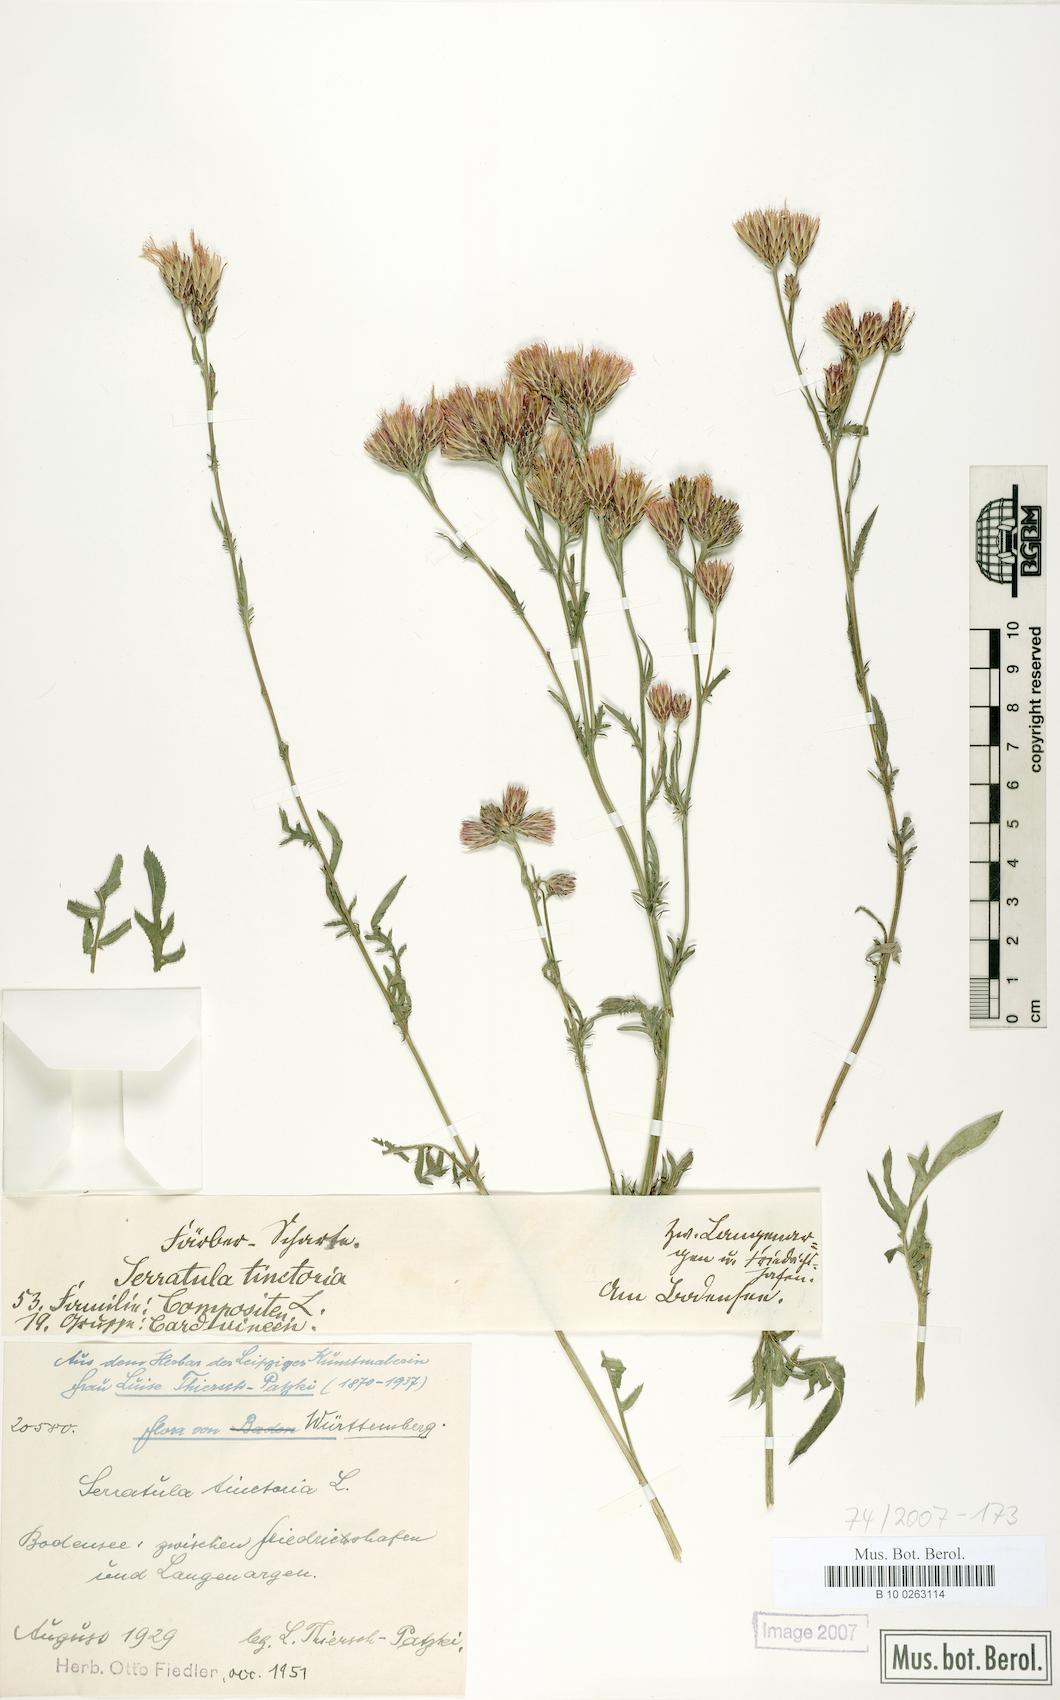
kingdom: Plantae
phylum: Tracheophyta
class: Magnoliopsida
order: Asterales
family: Asteraceae
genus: Serratula
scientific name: Serratula tinctoria
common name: Saw-wort
